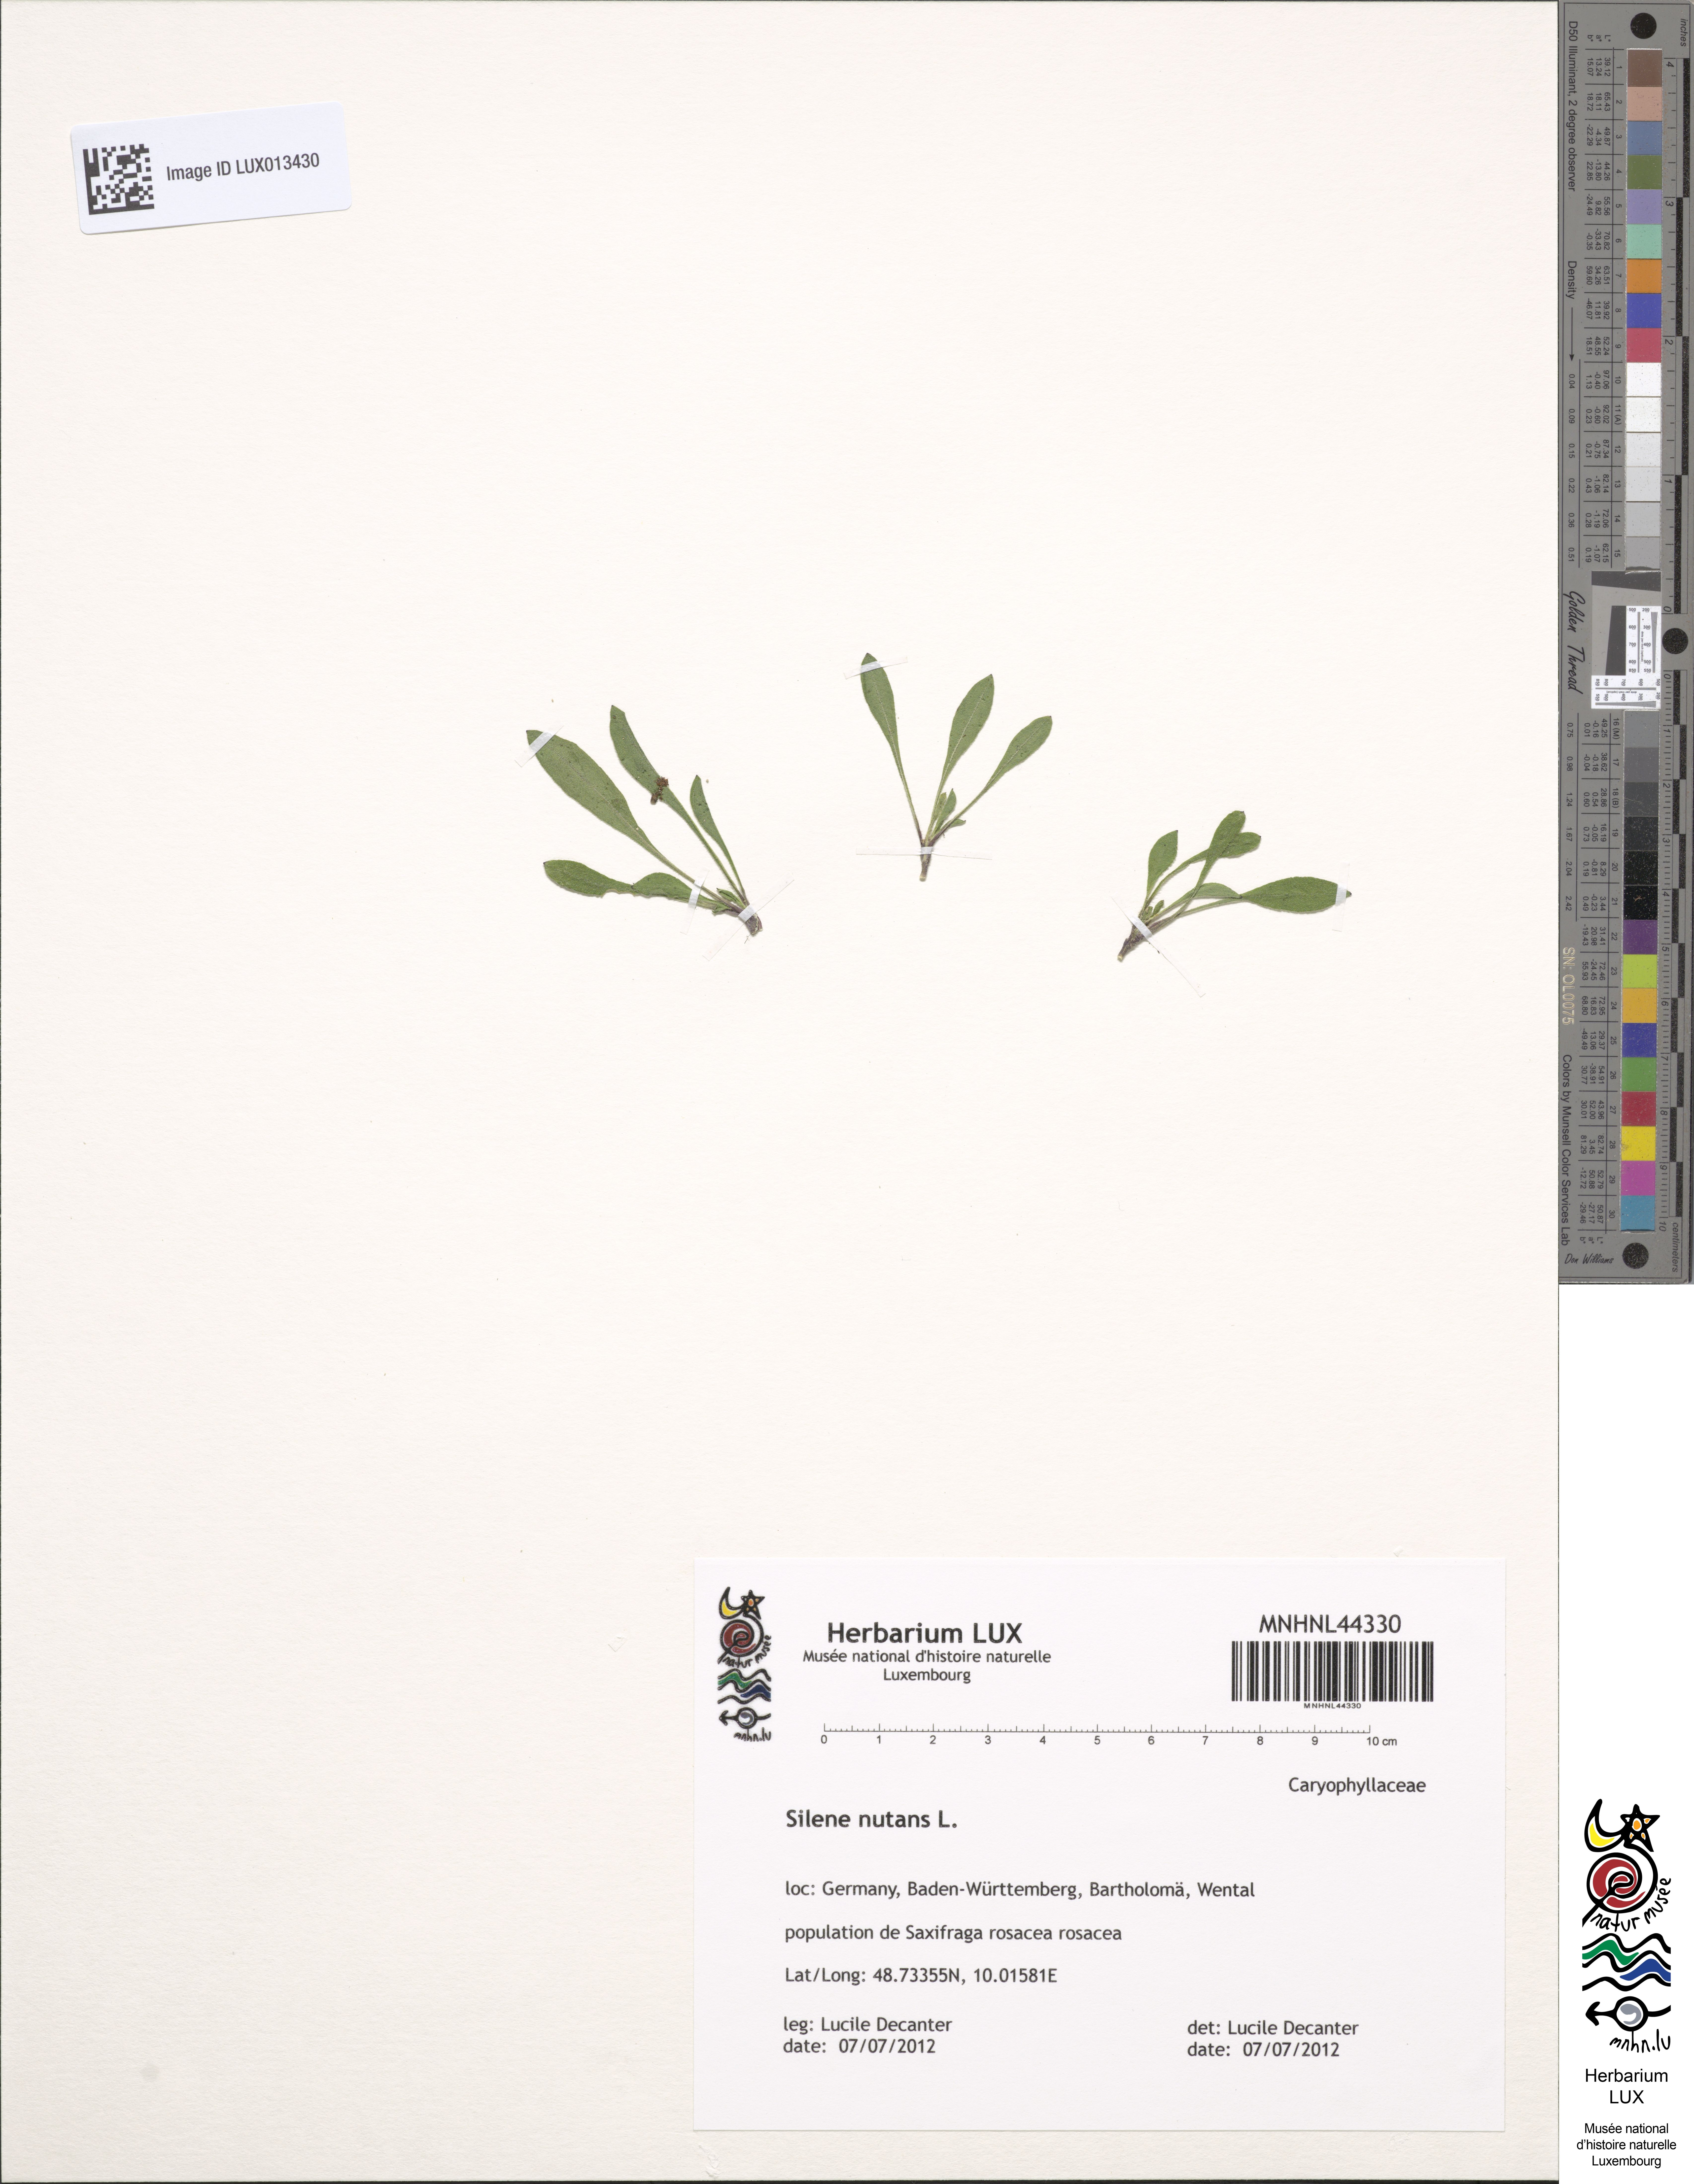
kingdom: Plantae
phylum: Tracheophyta
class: Magnoliopsida
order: Caryophyllales
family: Caryophyllaceae
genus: Silene
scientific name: Silene nutans
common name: Nottingham catchfly
